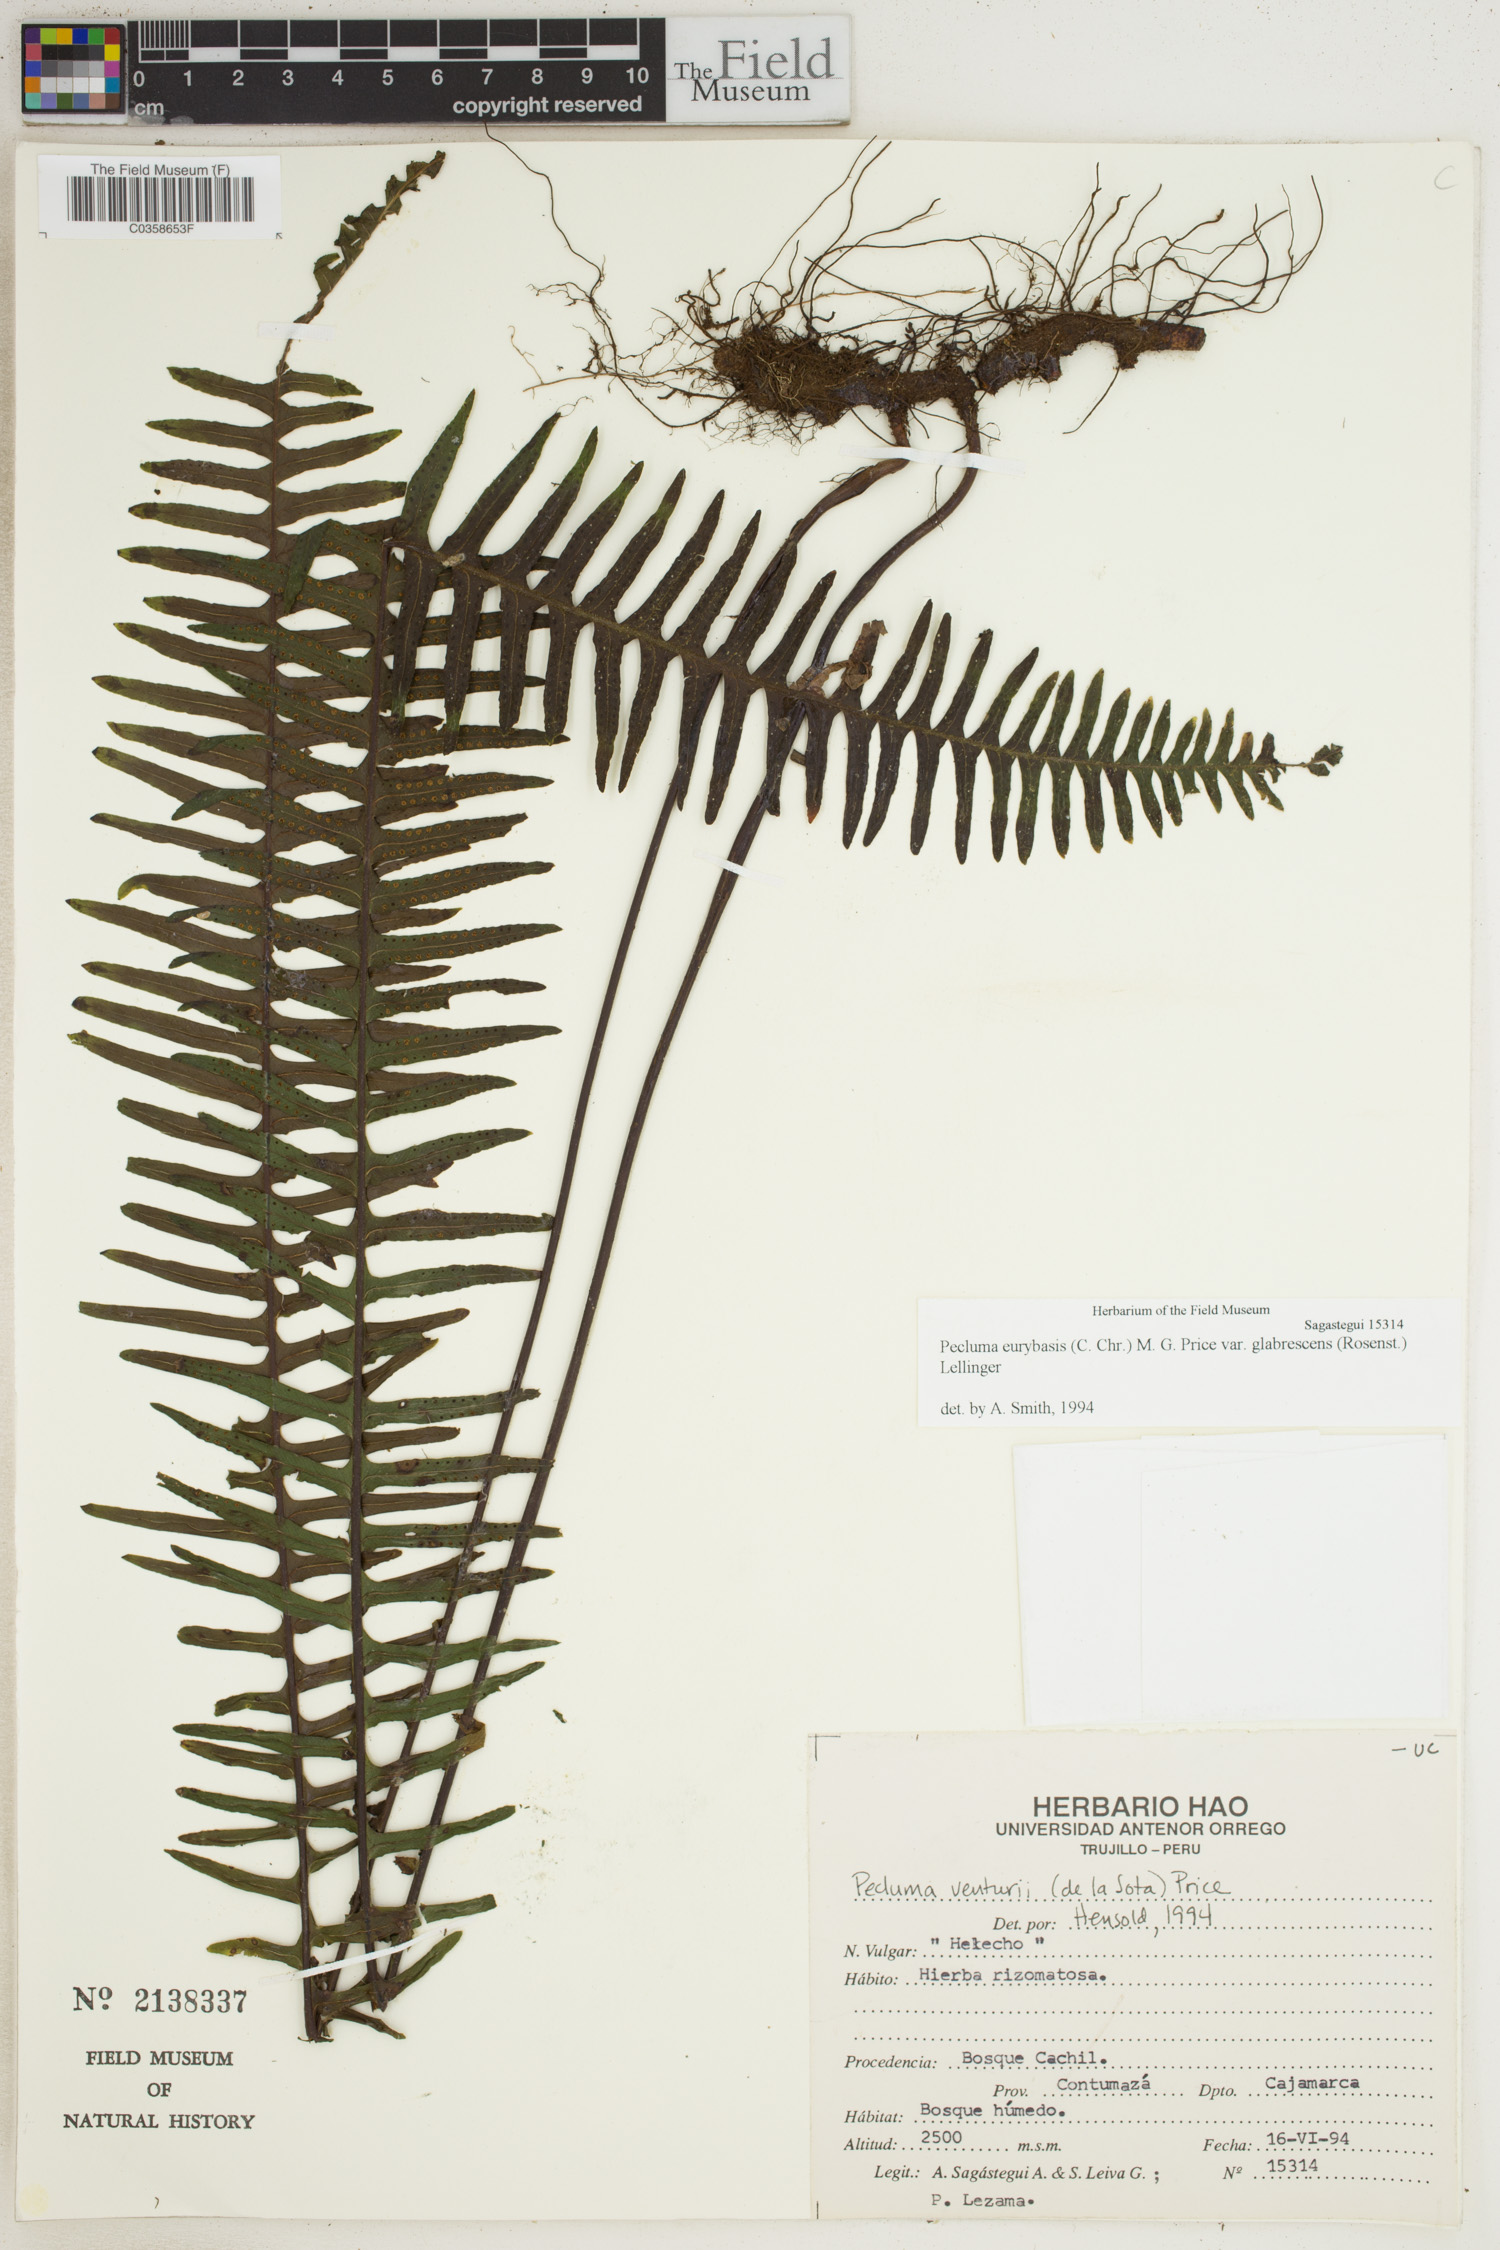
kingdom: Plantae
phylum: Tracheophyta
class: Polypodiopsida
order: Polypodiales
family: Polypodiaceae
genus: Pecluma
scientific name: Pecluma eurybasis
